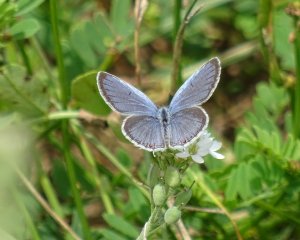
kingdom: Animalia
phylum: Arthropoda
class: Insecta
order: Lepidoptera
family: Lycaenidae
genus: Elkalyce
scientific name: Elkalyce comyntas
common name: Eastern Tailed-Blue
